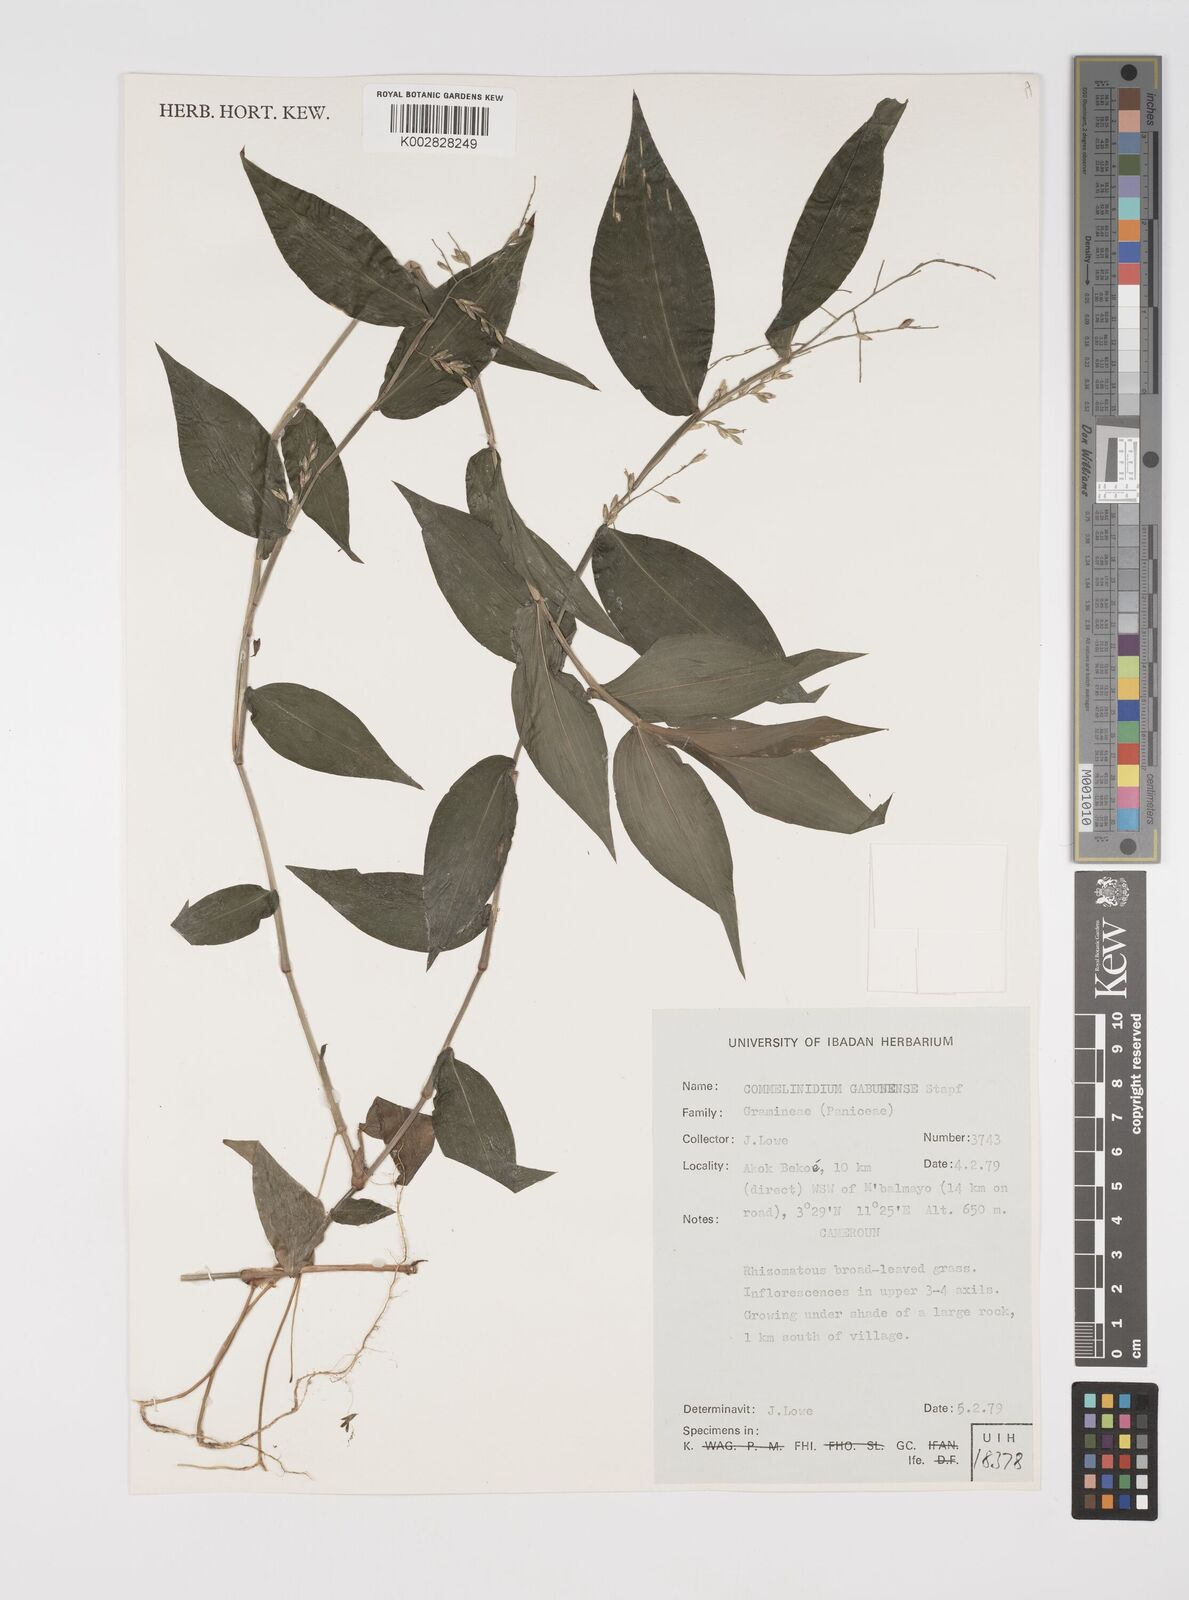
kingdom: Plantae
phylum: Tracheophyta
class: Liliopsida
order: Poales
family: Poaceae
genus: Acroceras
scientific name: Acroceras gabunense
